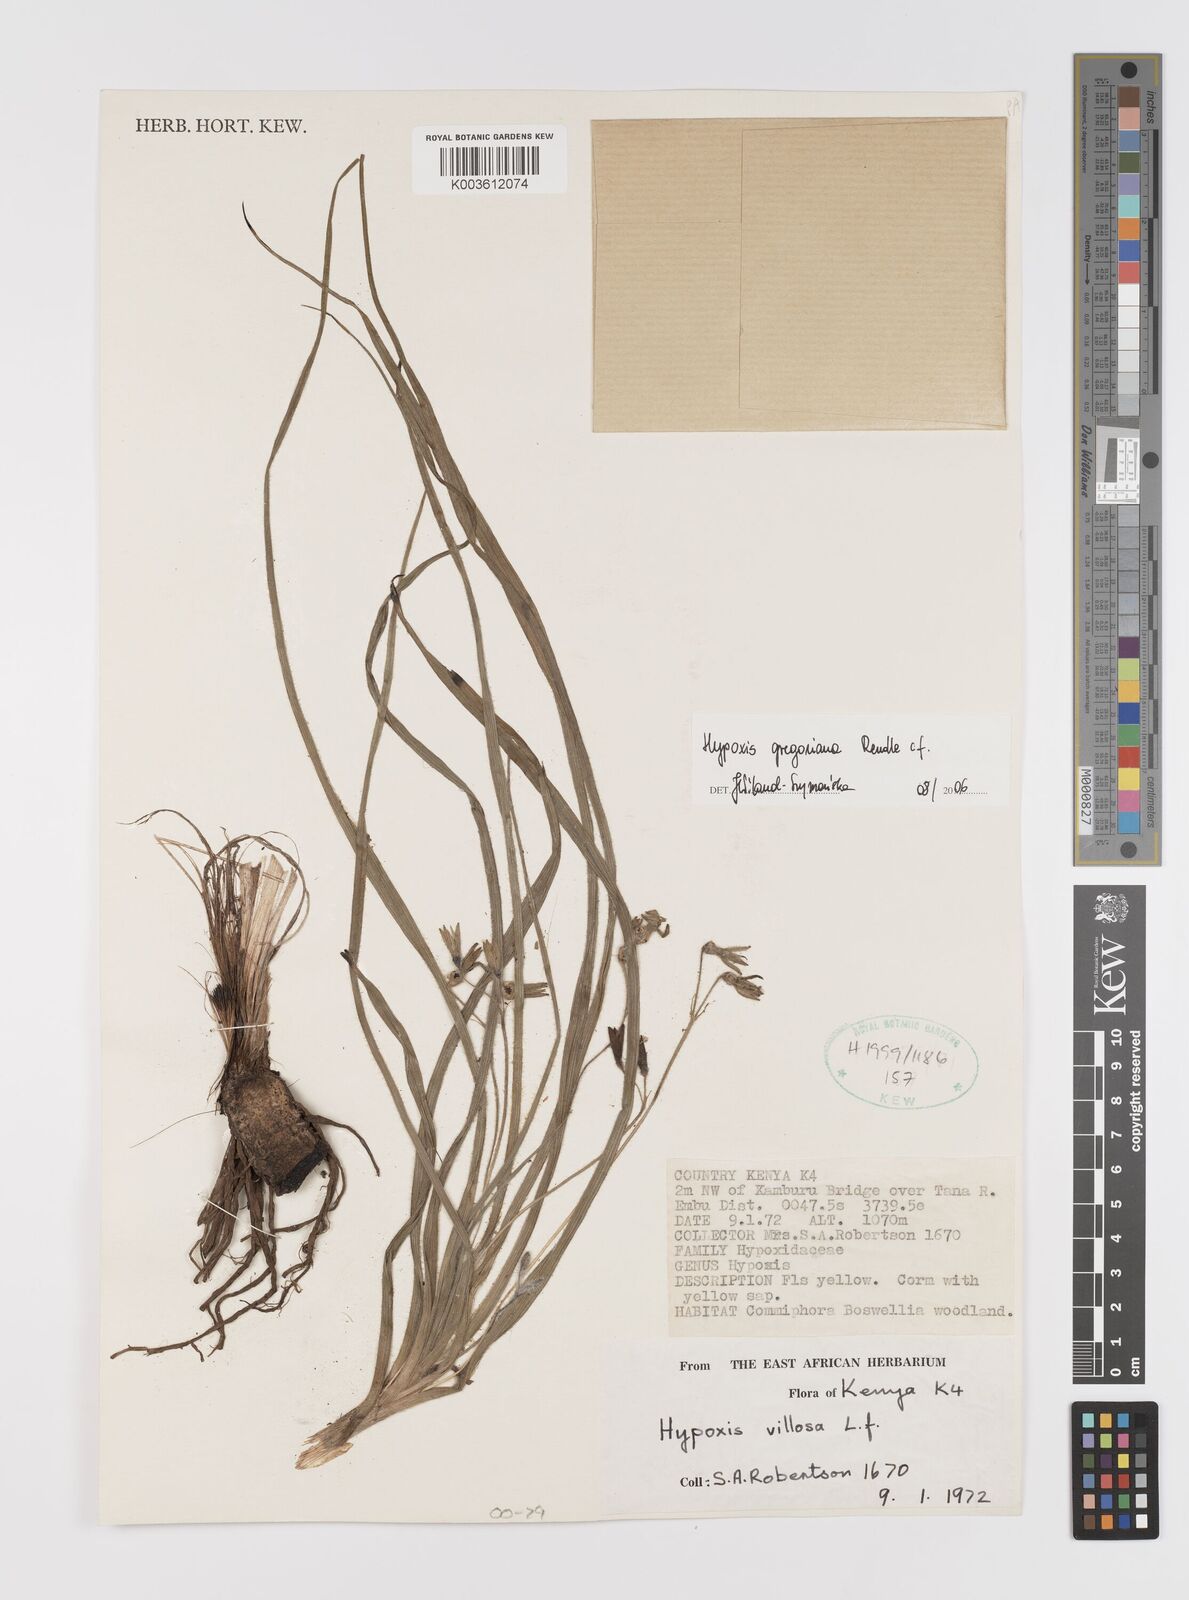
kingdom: Plantae
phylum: Tracheophyta
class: Liliopsida
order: Asparagales
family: Hypoxidaceae
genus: Hypoxis
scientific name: Hypoxis gregoriana
